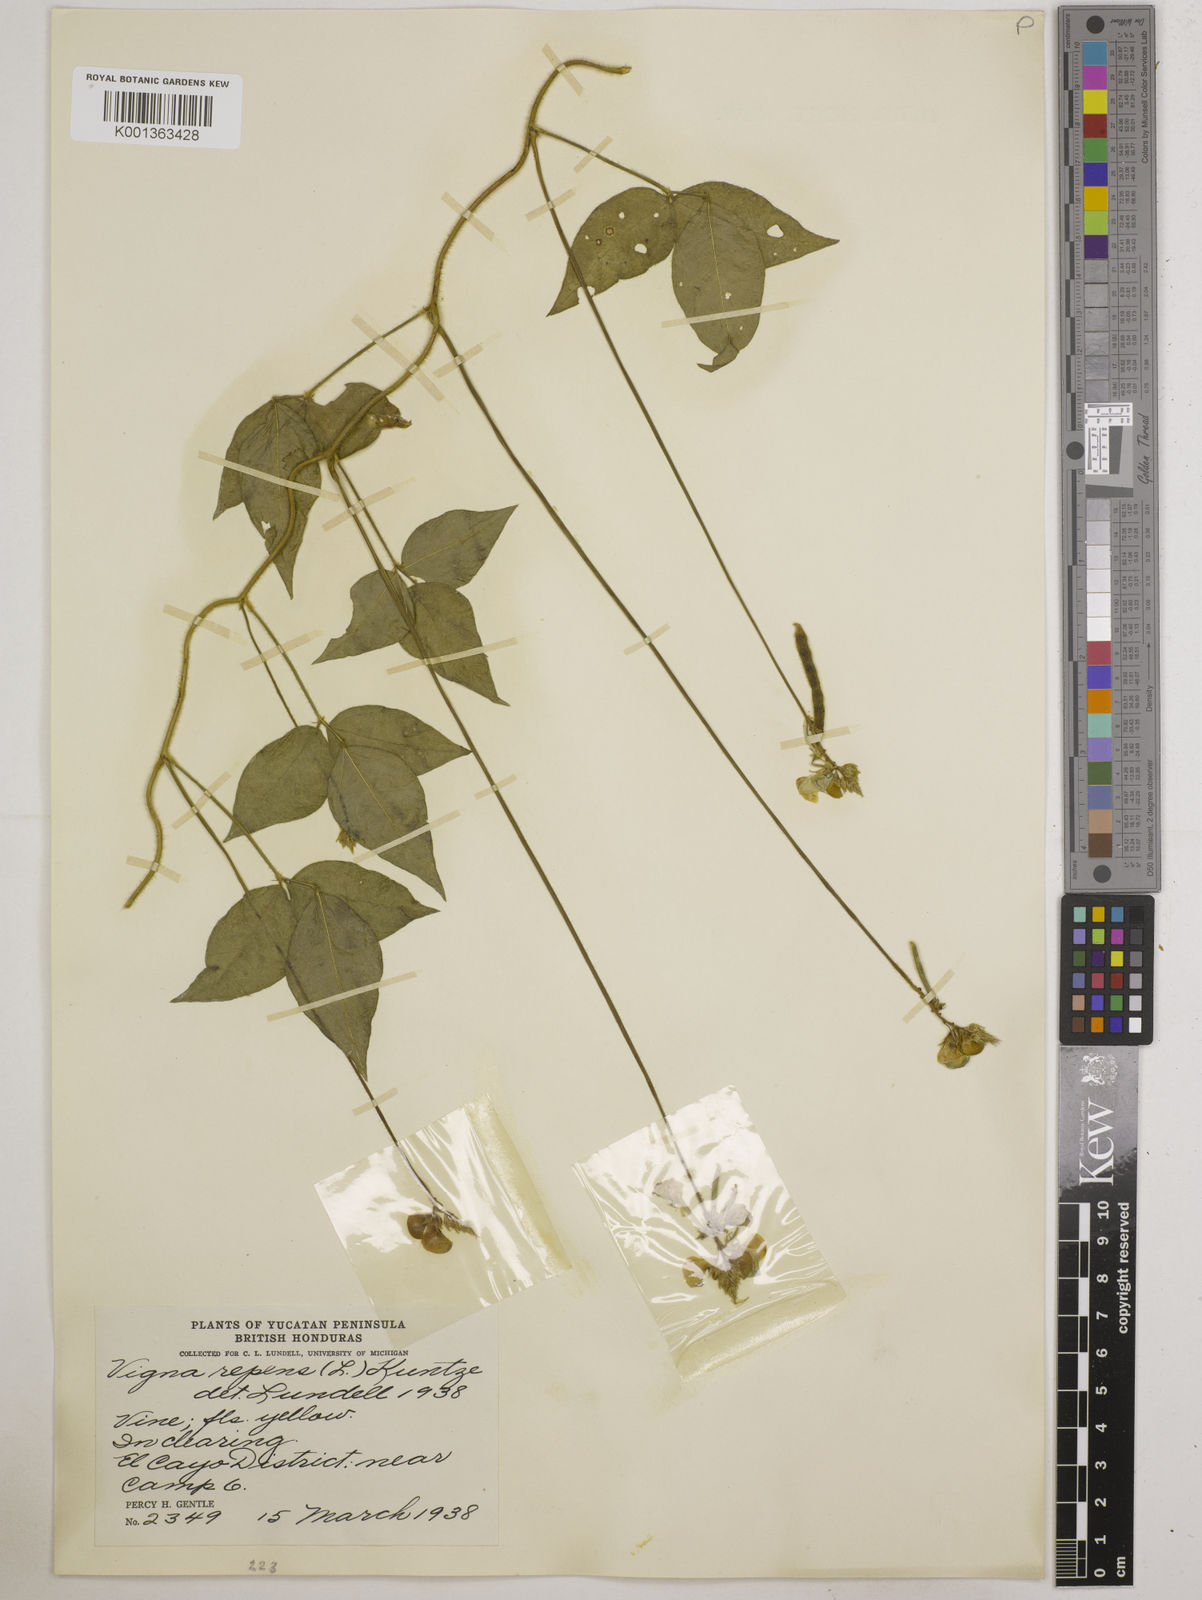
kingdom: Plantae
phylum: Tracheophyta
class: Magnoliopsida
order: Fabales
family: Fabaceae
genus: Vigna
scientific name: Vigna luteola
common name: Hairypod cowpea
